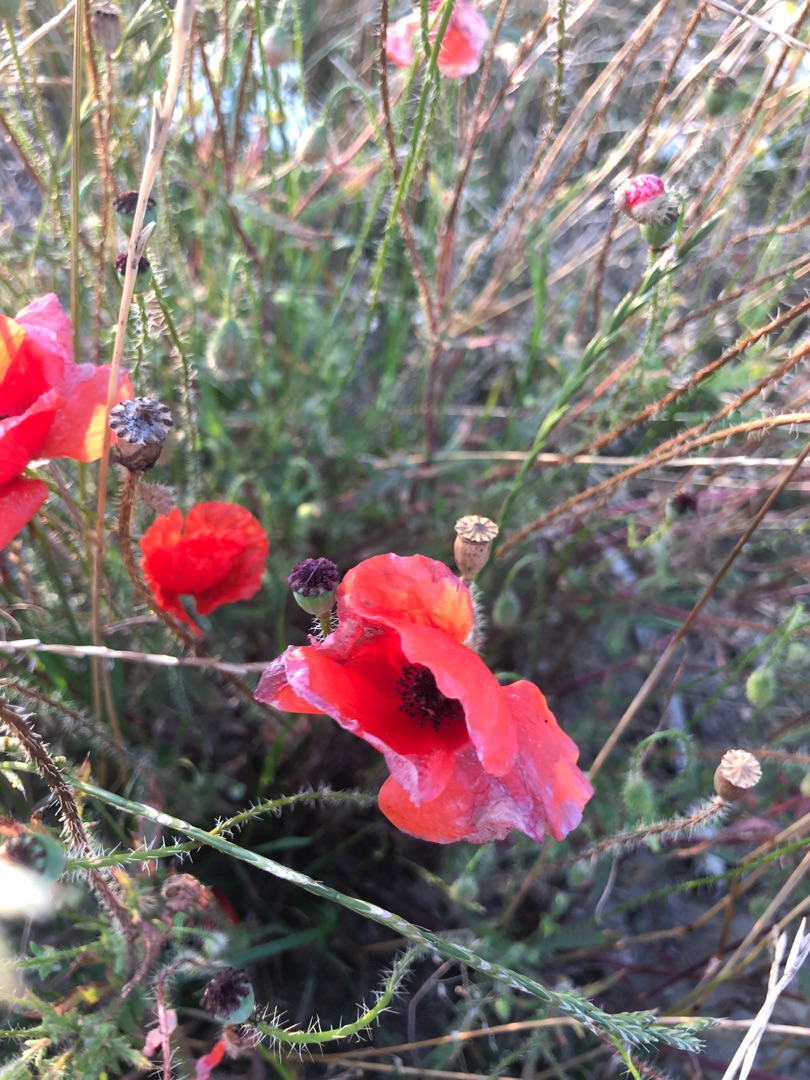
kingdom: Plantae
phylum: Tracheophyta
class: Magnoliopsida
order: Ranunculales
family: Papaveraceae
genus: Papaver
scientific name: Papaver rhoeas
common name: Korn-valmue
